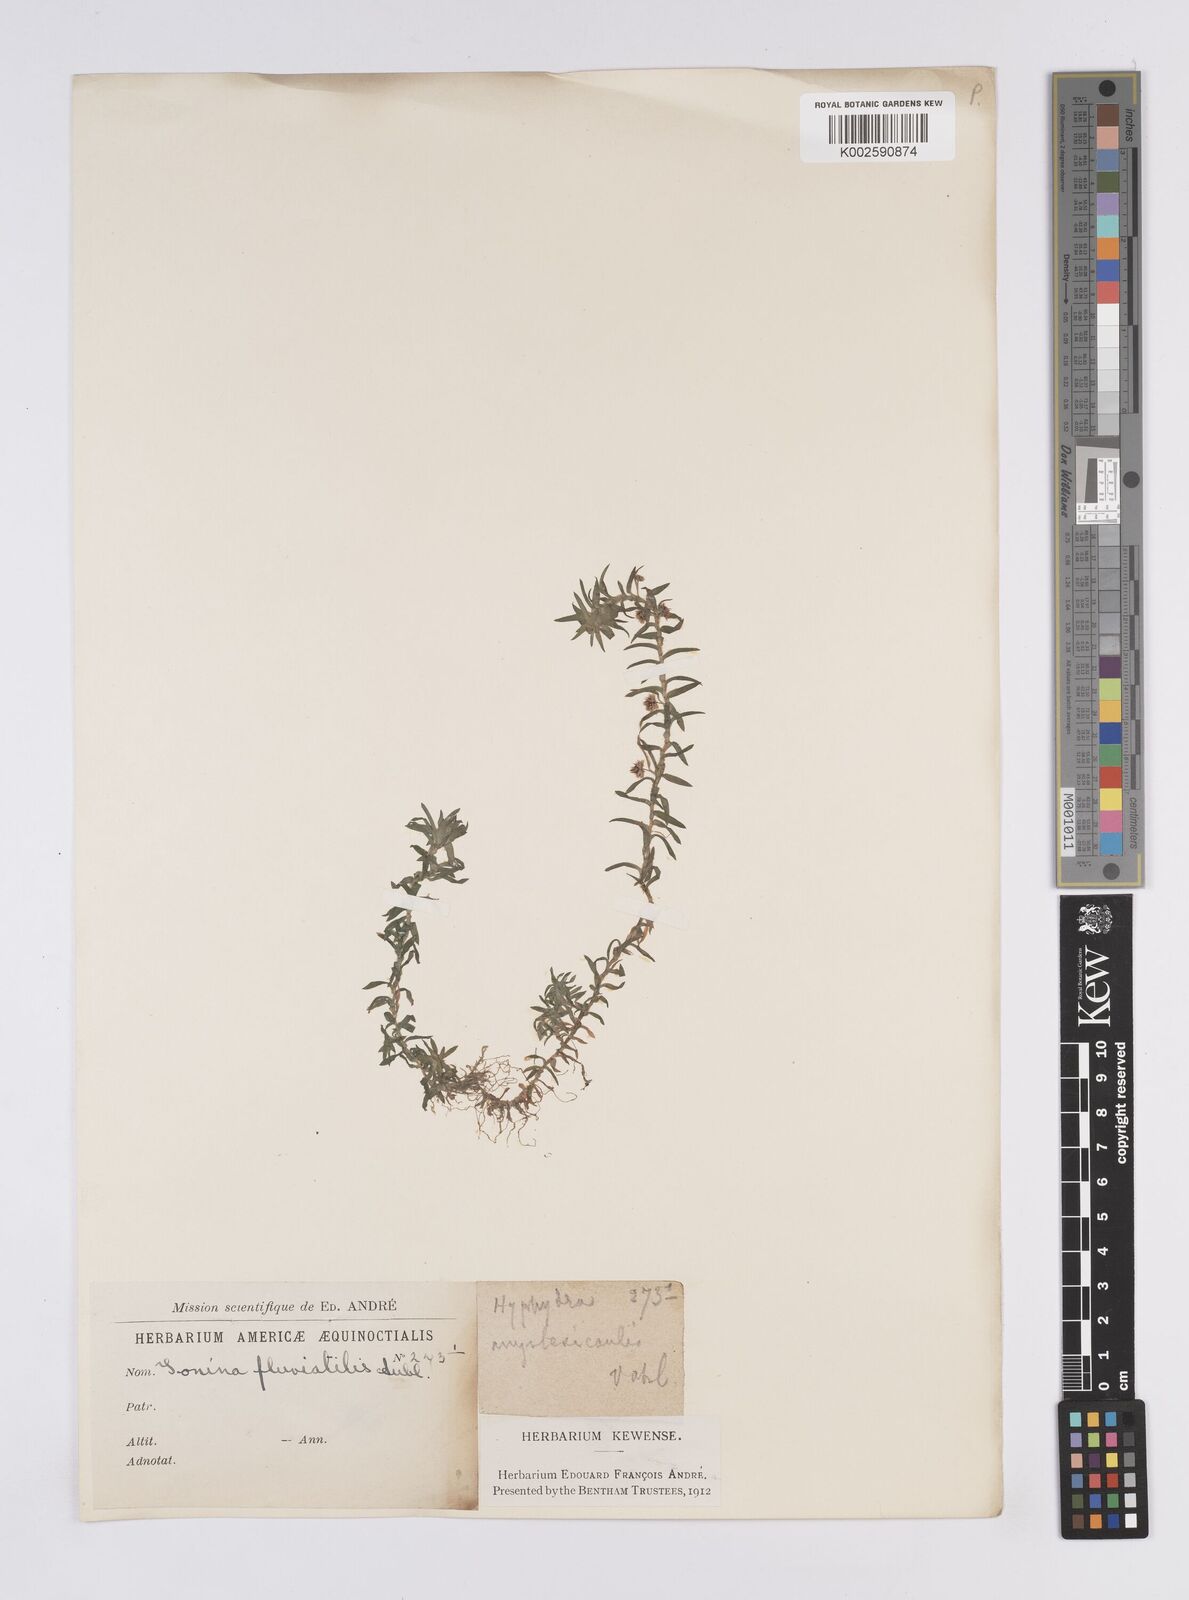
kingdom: Plantae
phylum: Tracheophyta
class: Liliopsida
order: Poales
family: Eriocaulaceae
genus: Paepalanthus
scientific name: Paepalanthus fluviatilis
